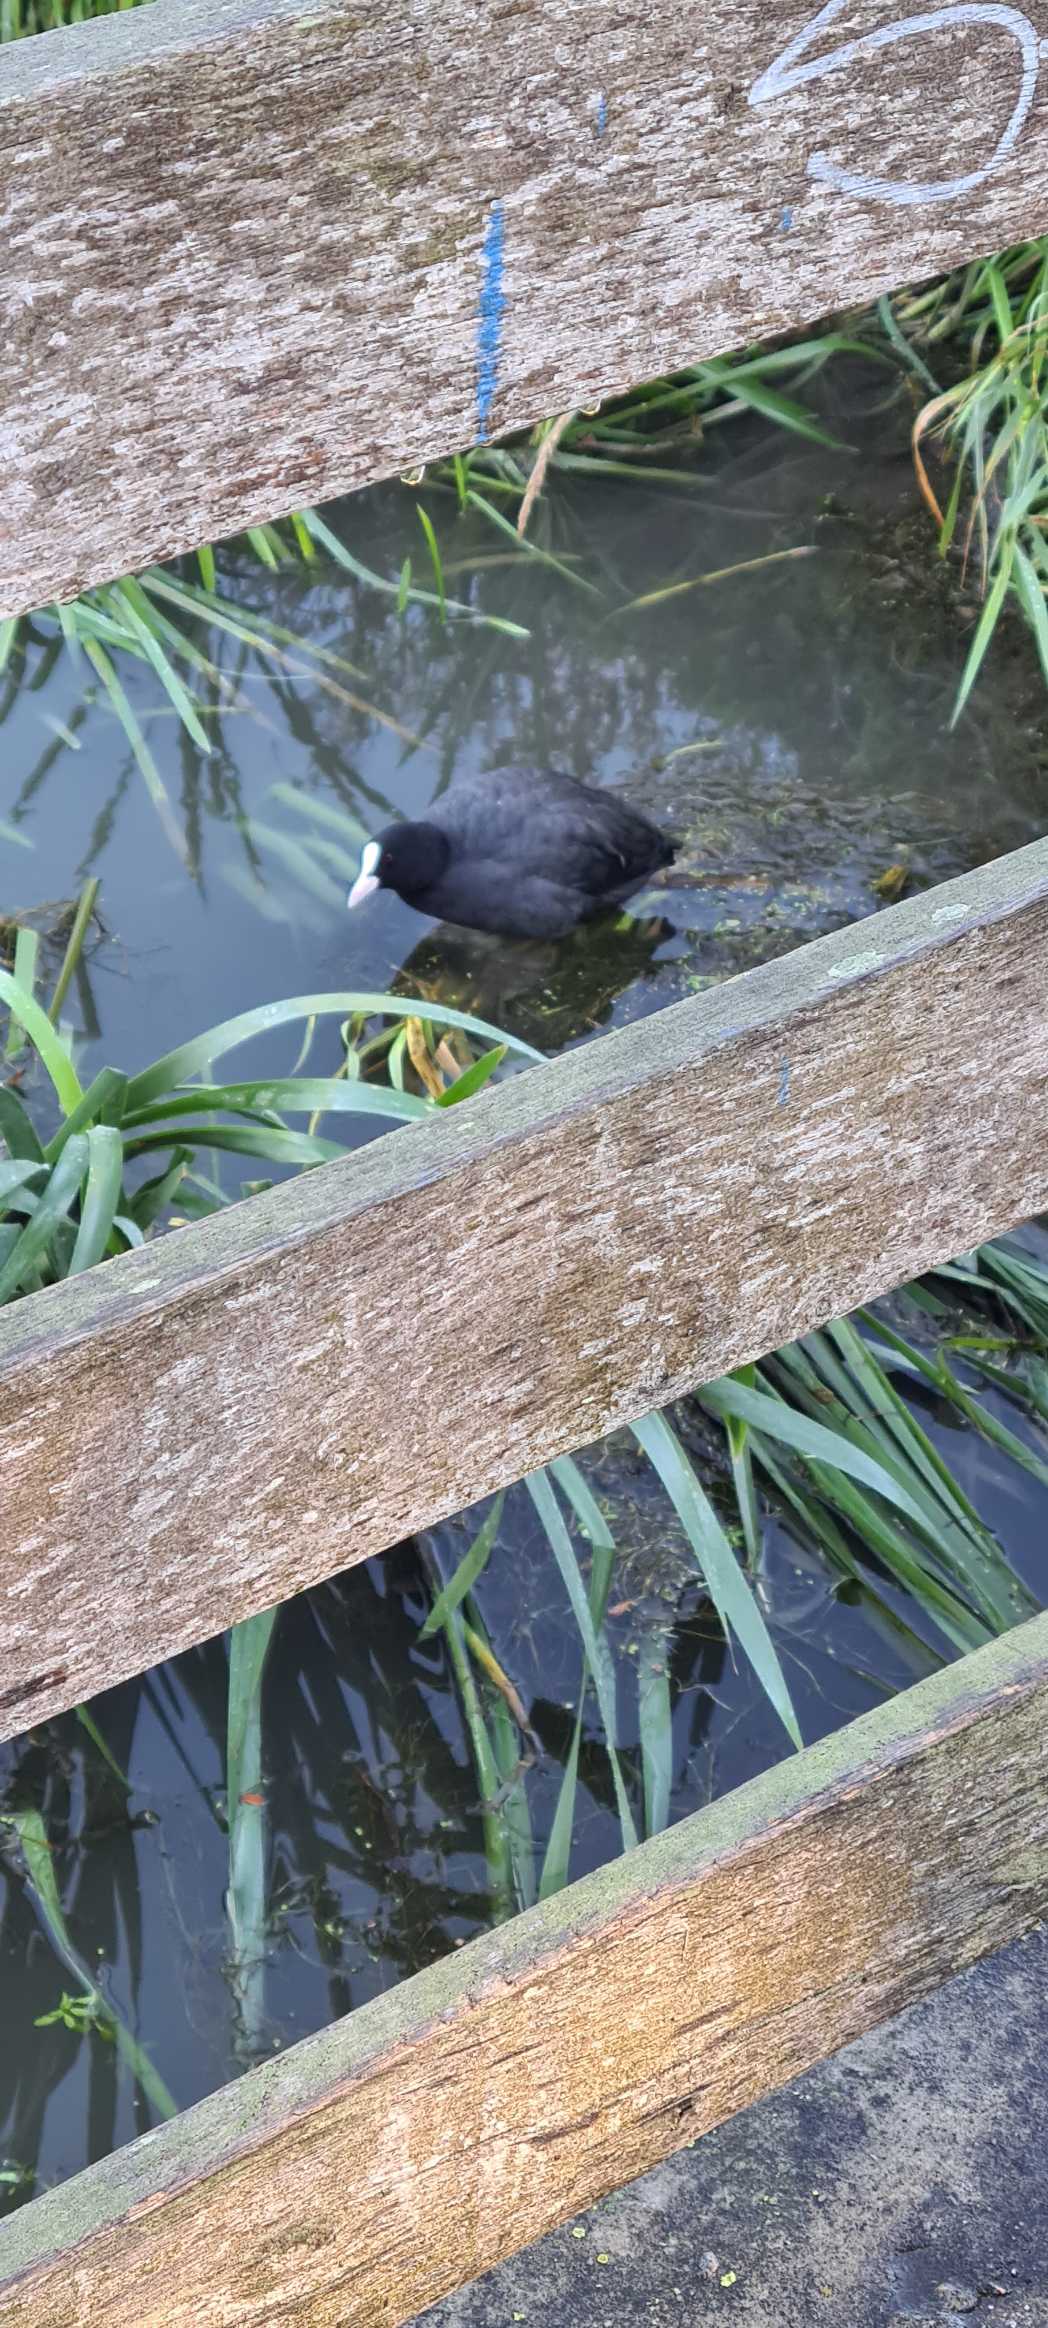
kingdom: Animalia
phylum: Chordata
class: Aves
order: Gruiformes
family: Rallidae
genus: Fulica
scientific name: Fulica atra
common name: Blishøne
